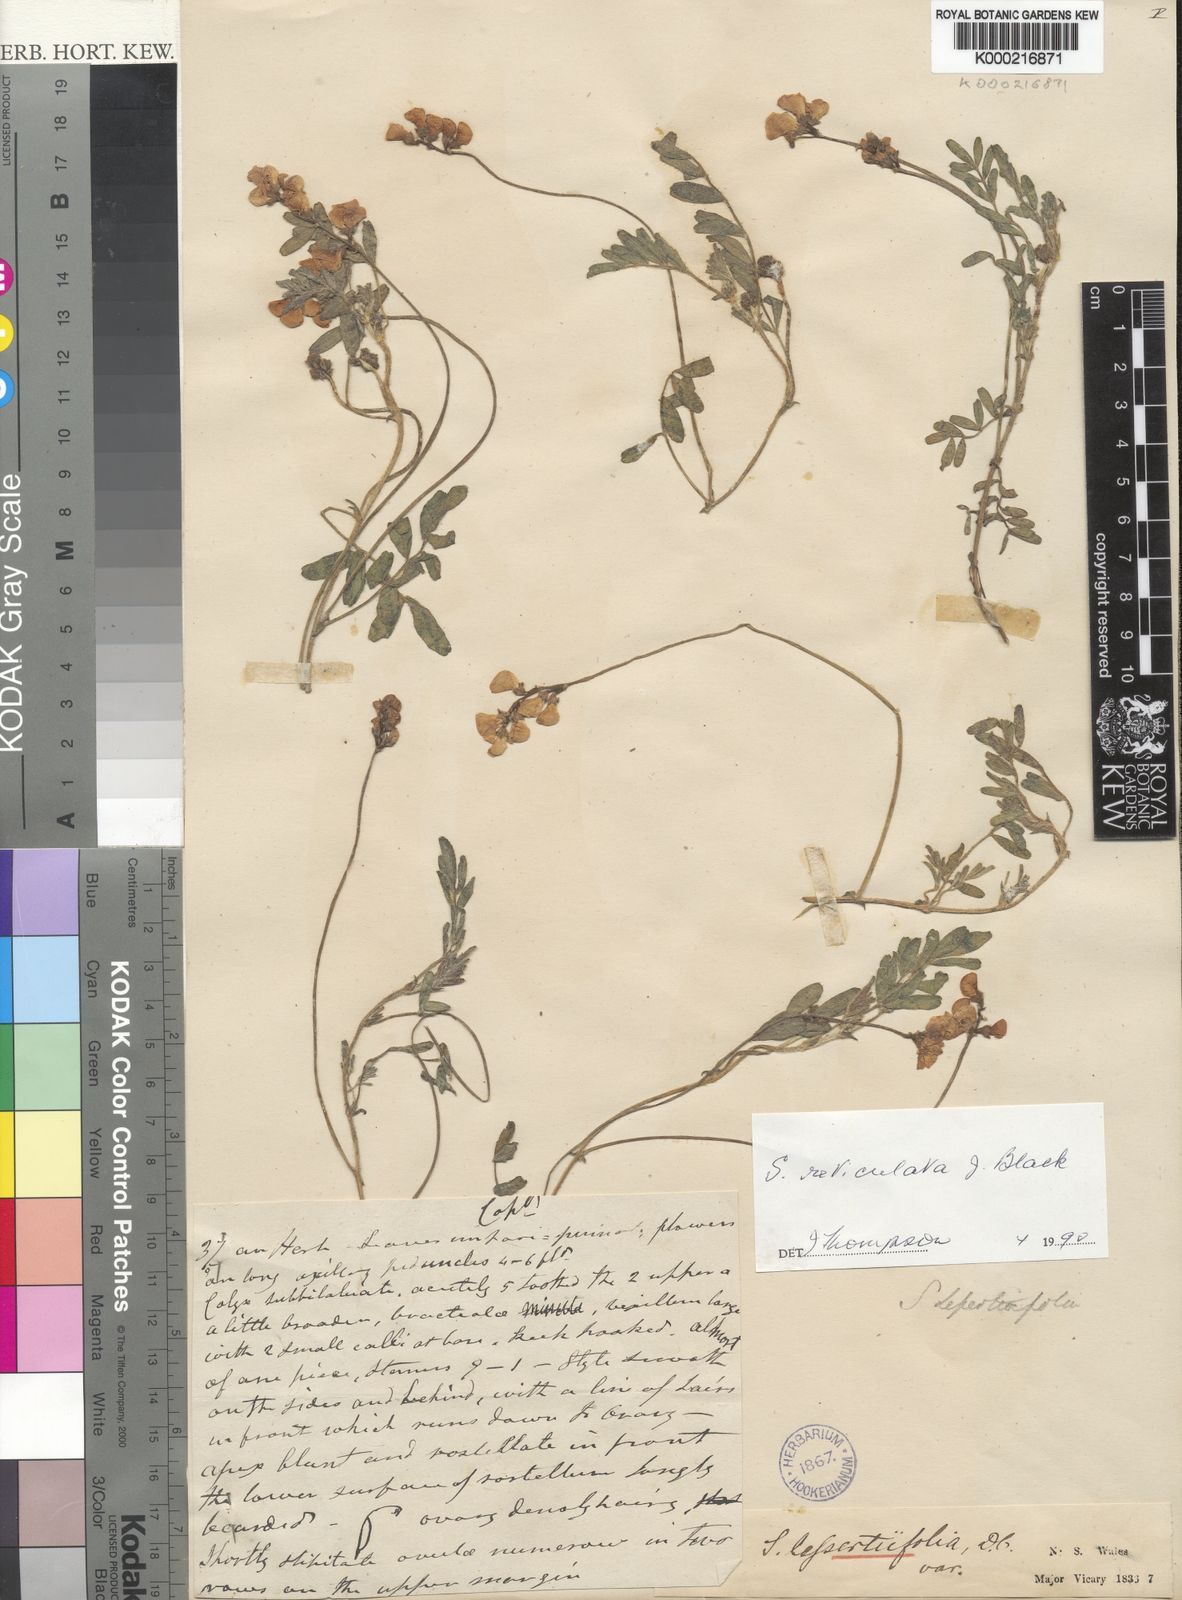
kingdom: Plantae
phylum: Tracheophyta
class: Magnoliopsida
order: Fabales
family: Fabaceae
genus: Swainsona
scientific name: Swainsona reticulata
